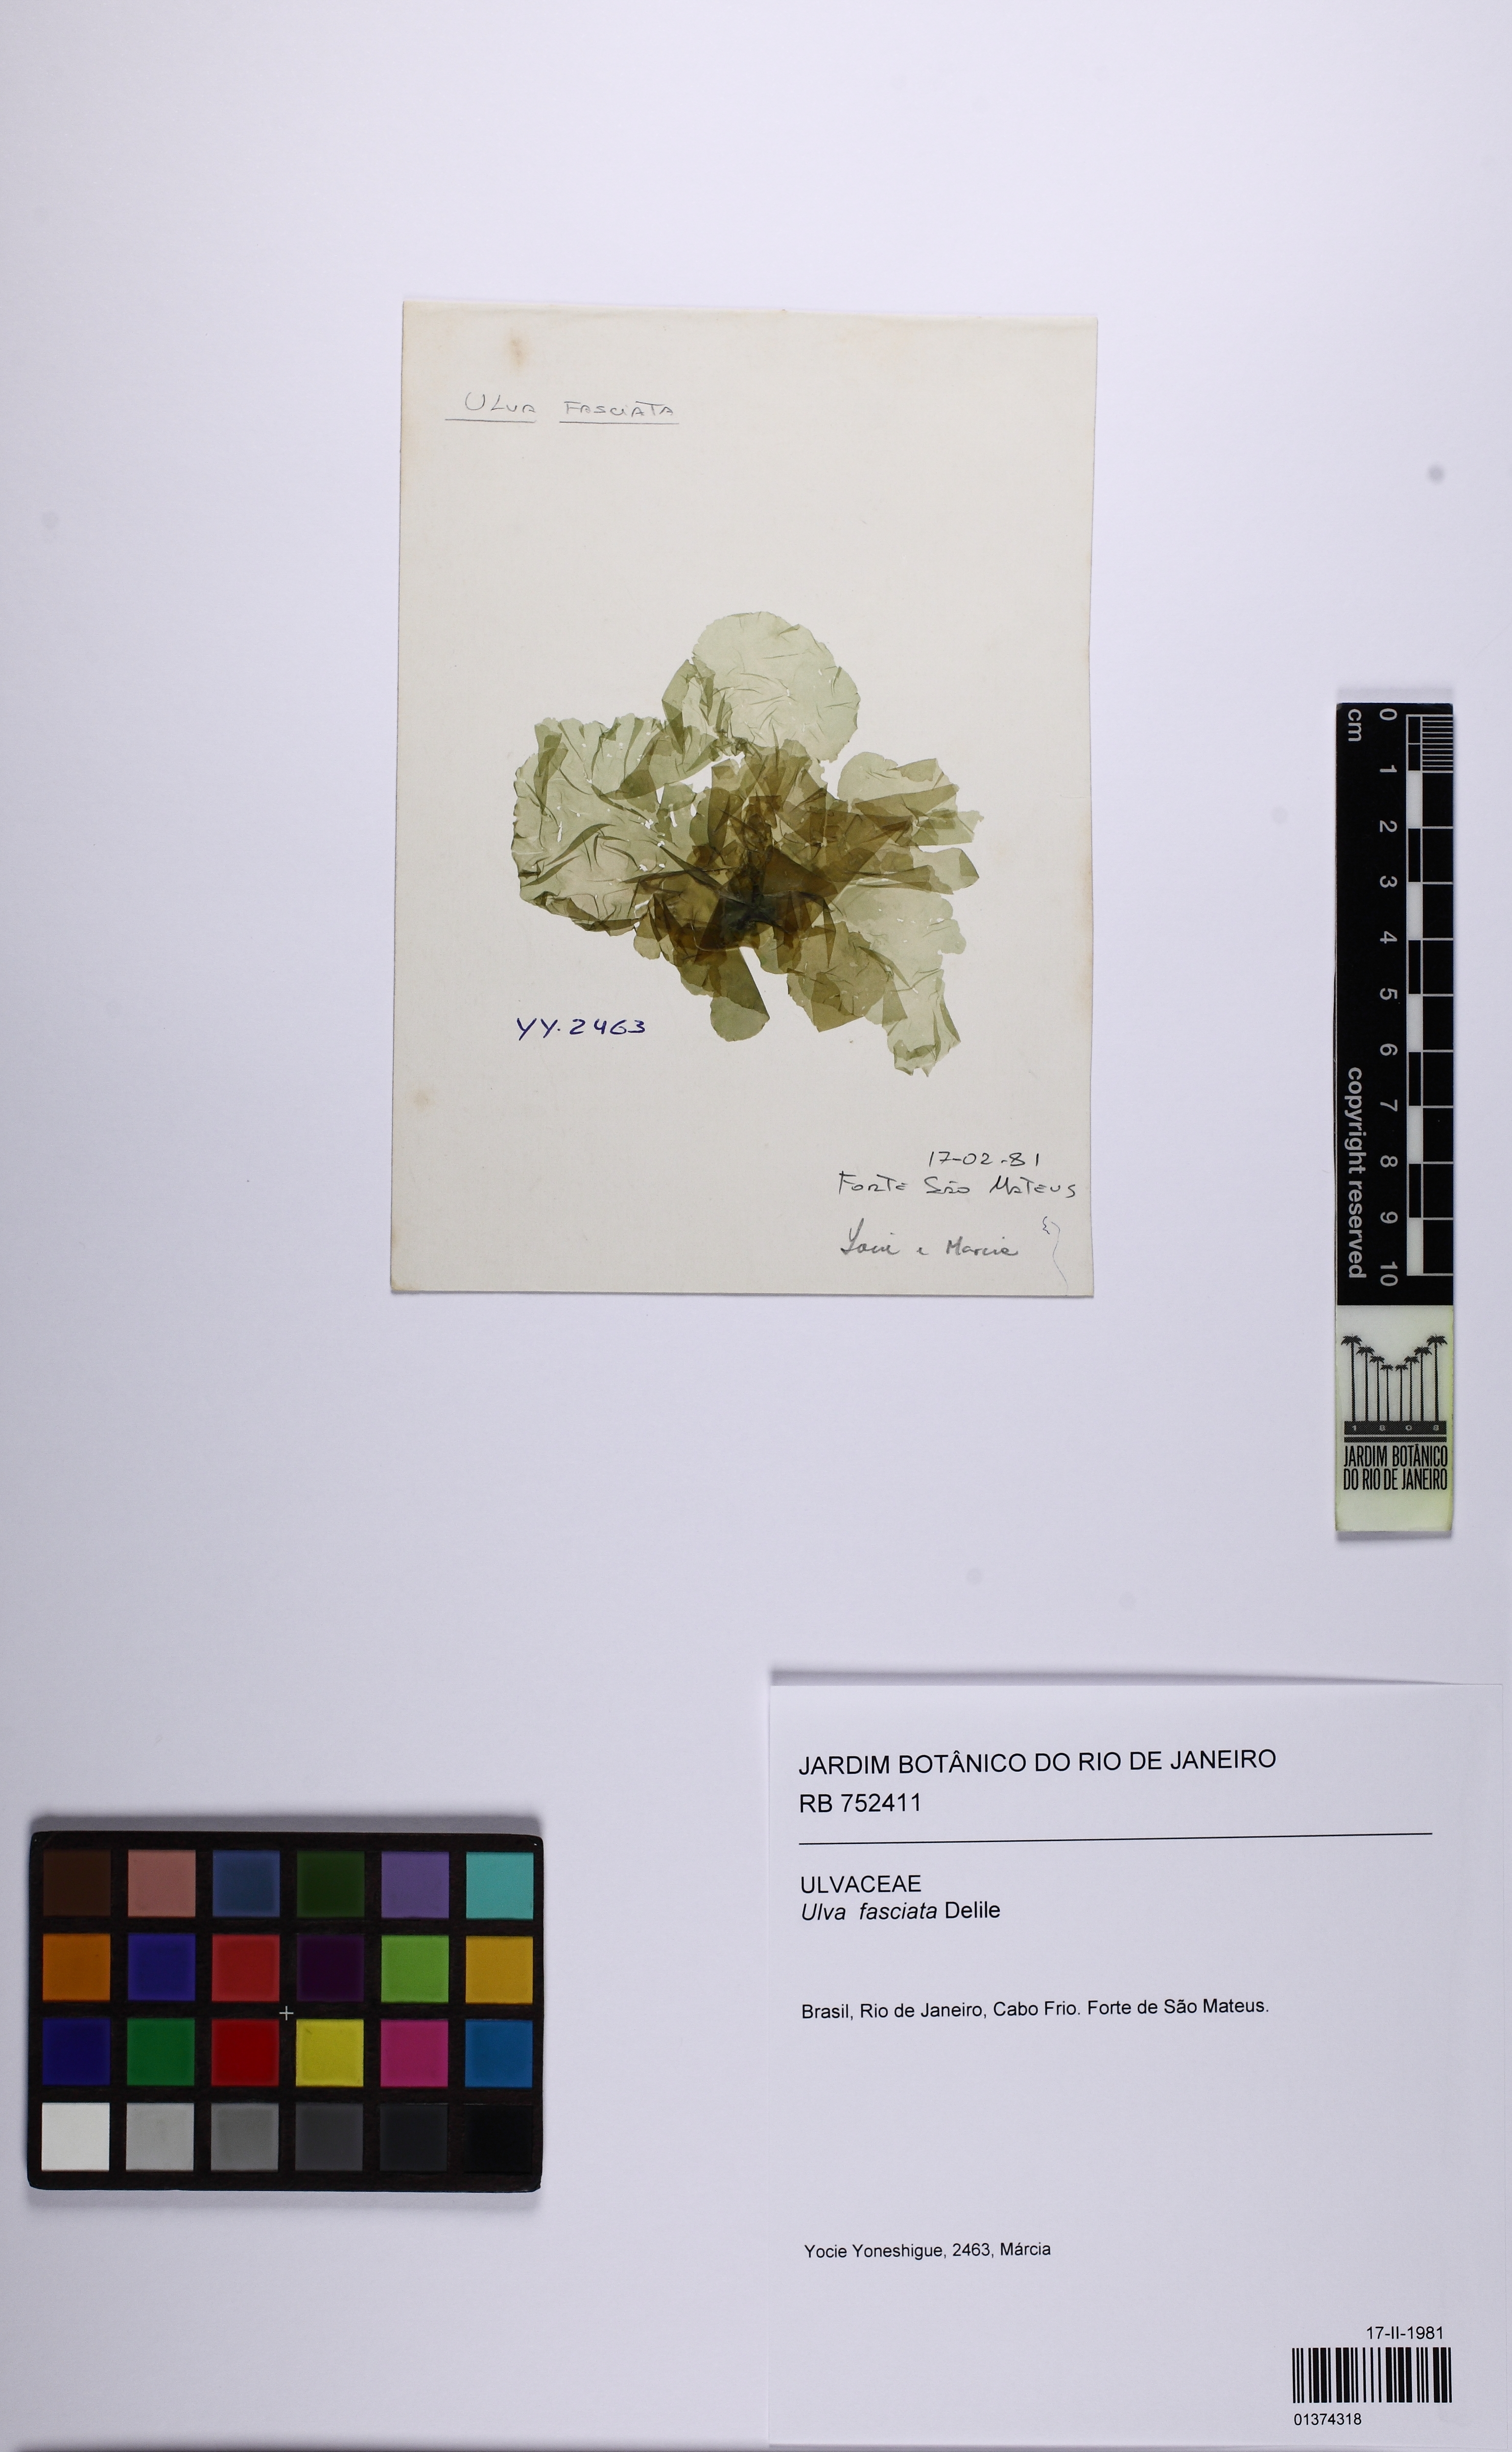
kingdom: Plantae
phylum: Chlorophyta
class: Ulvophyceae
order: Ulvales
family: Ulvaceae
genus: Ulva
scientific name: Ulva lactuca
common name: Sea lettuce
